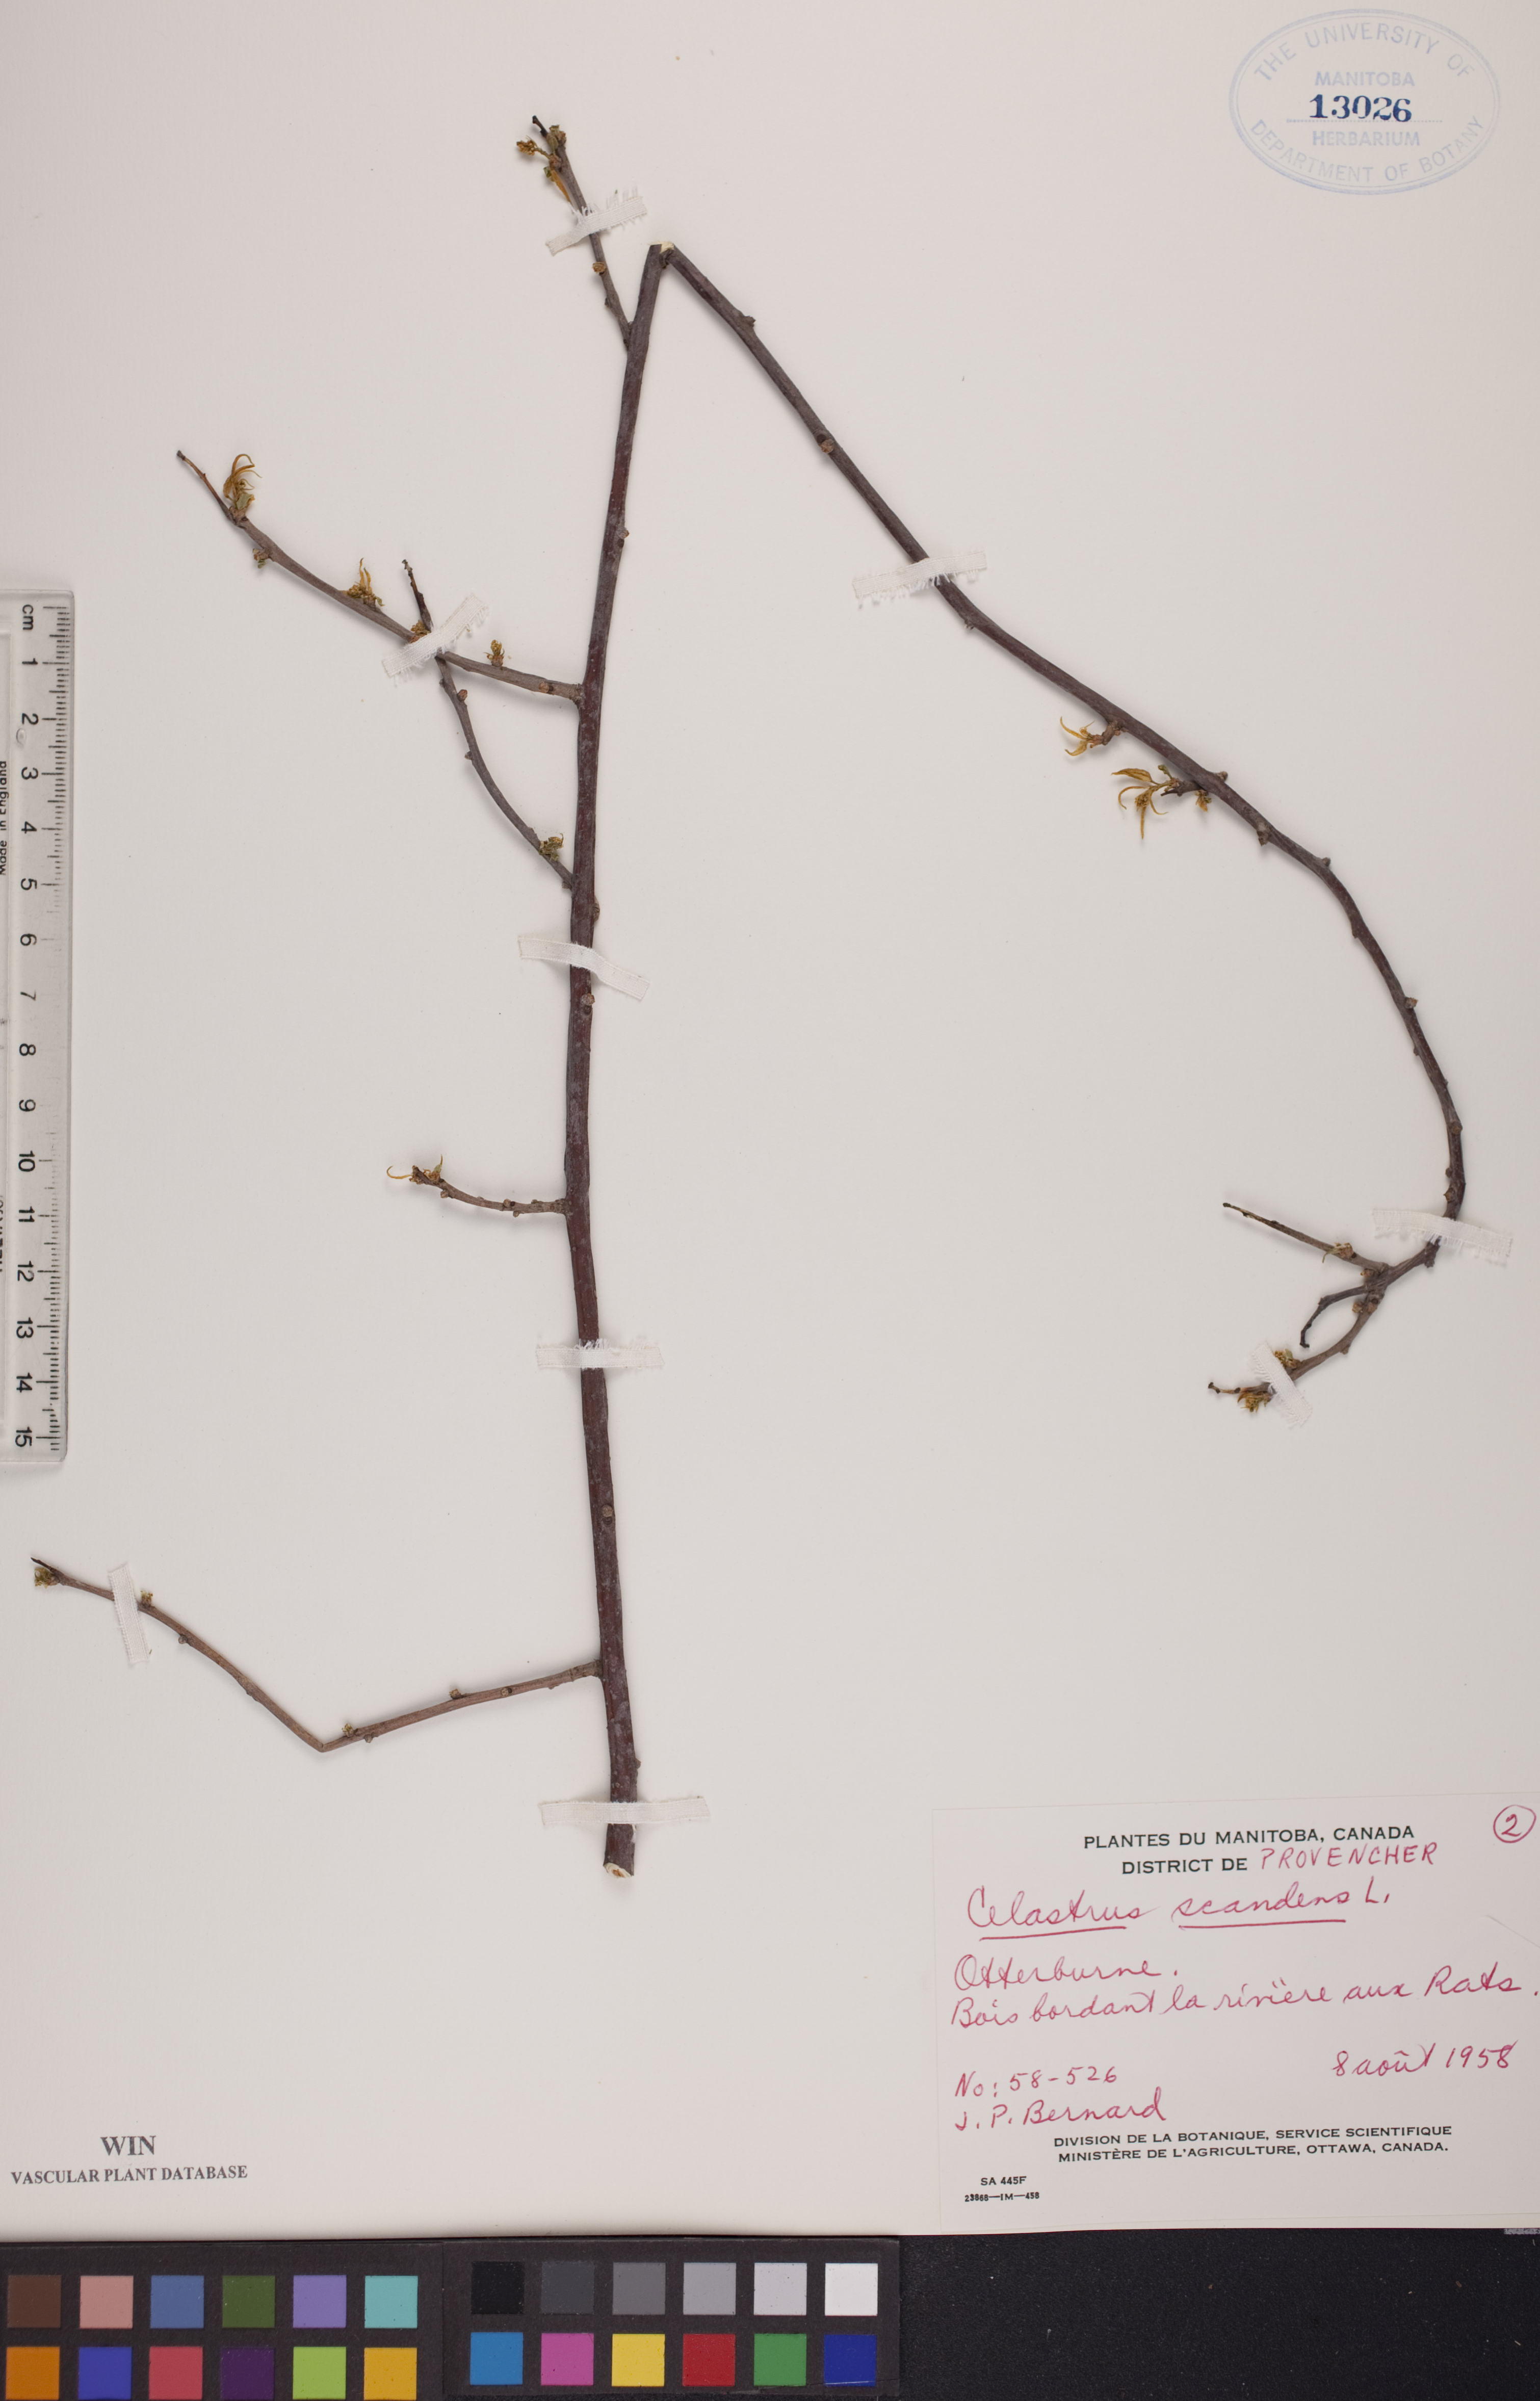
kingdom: Plantae
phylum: Tracheophyta
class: Magnoliopsida
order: Celastrales
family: Celastraceae
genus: Celastrus
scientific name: Celastrus scandens
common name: American bittersweet
